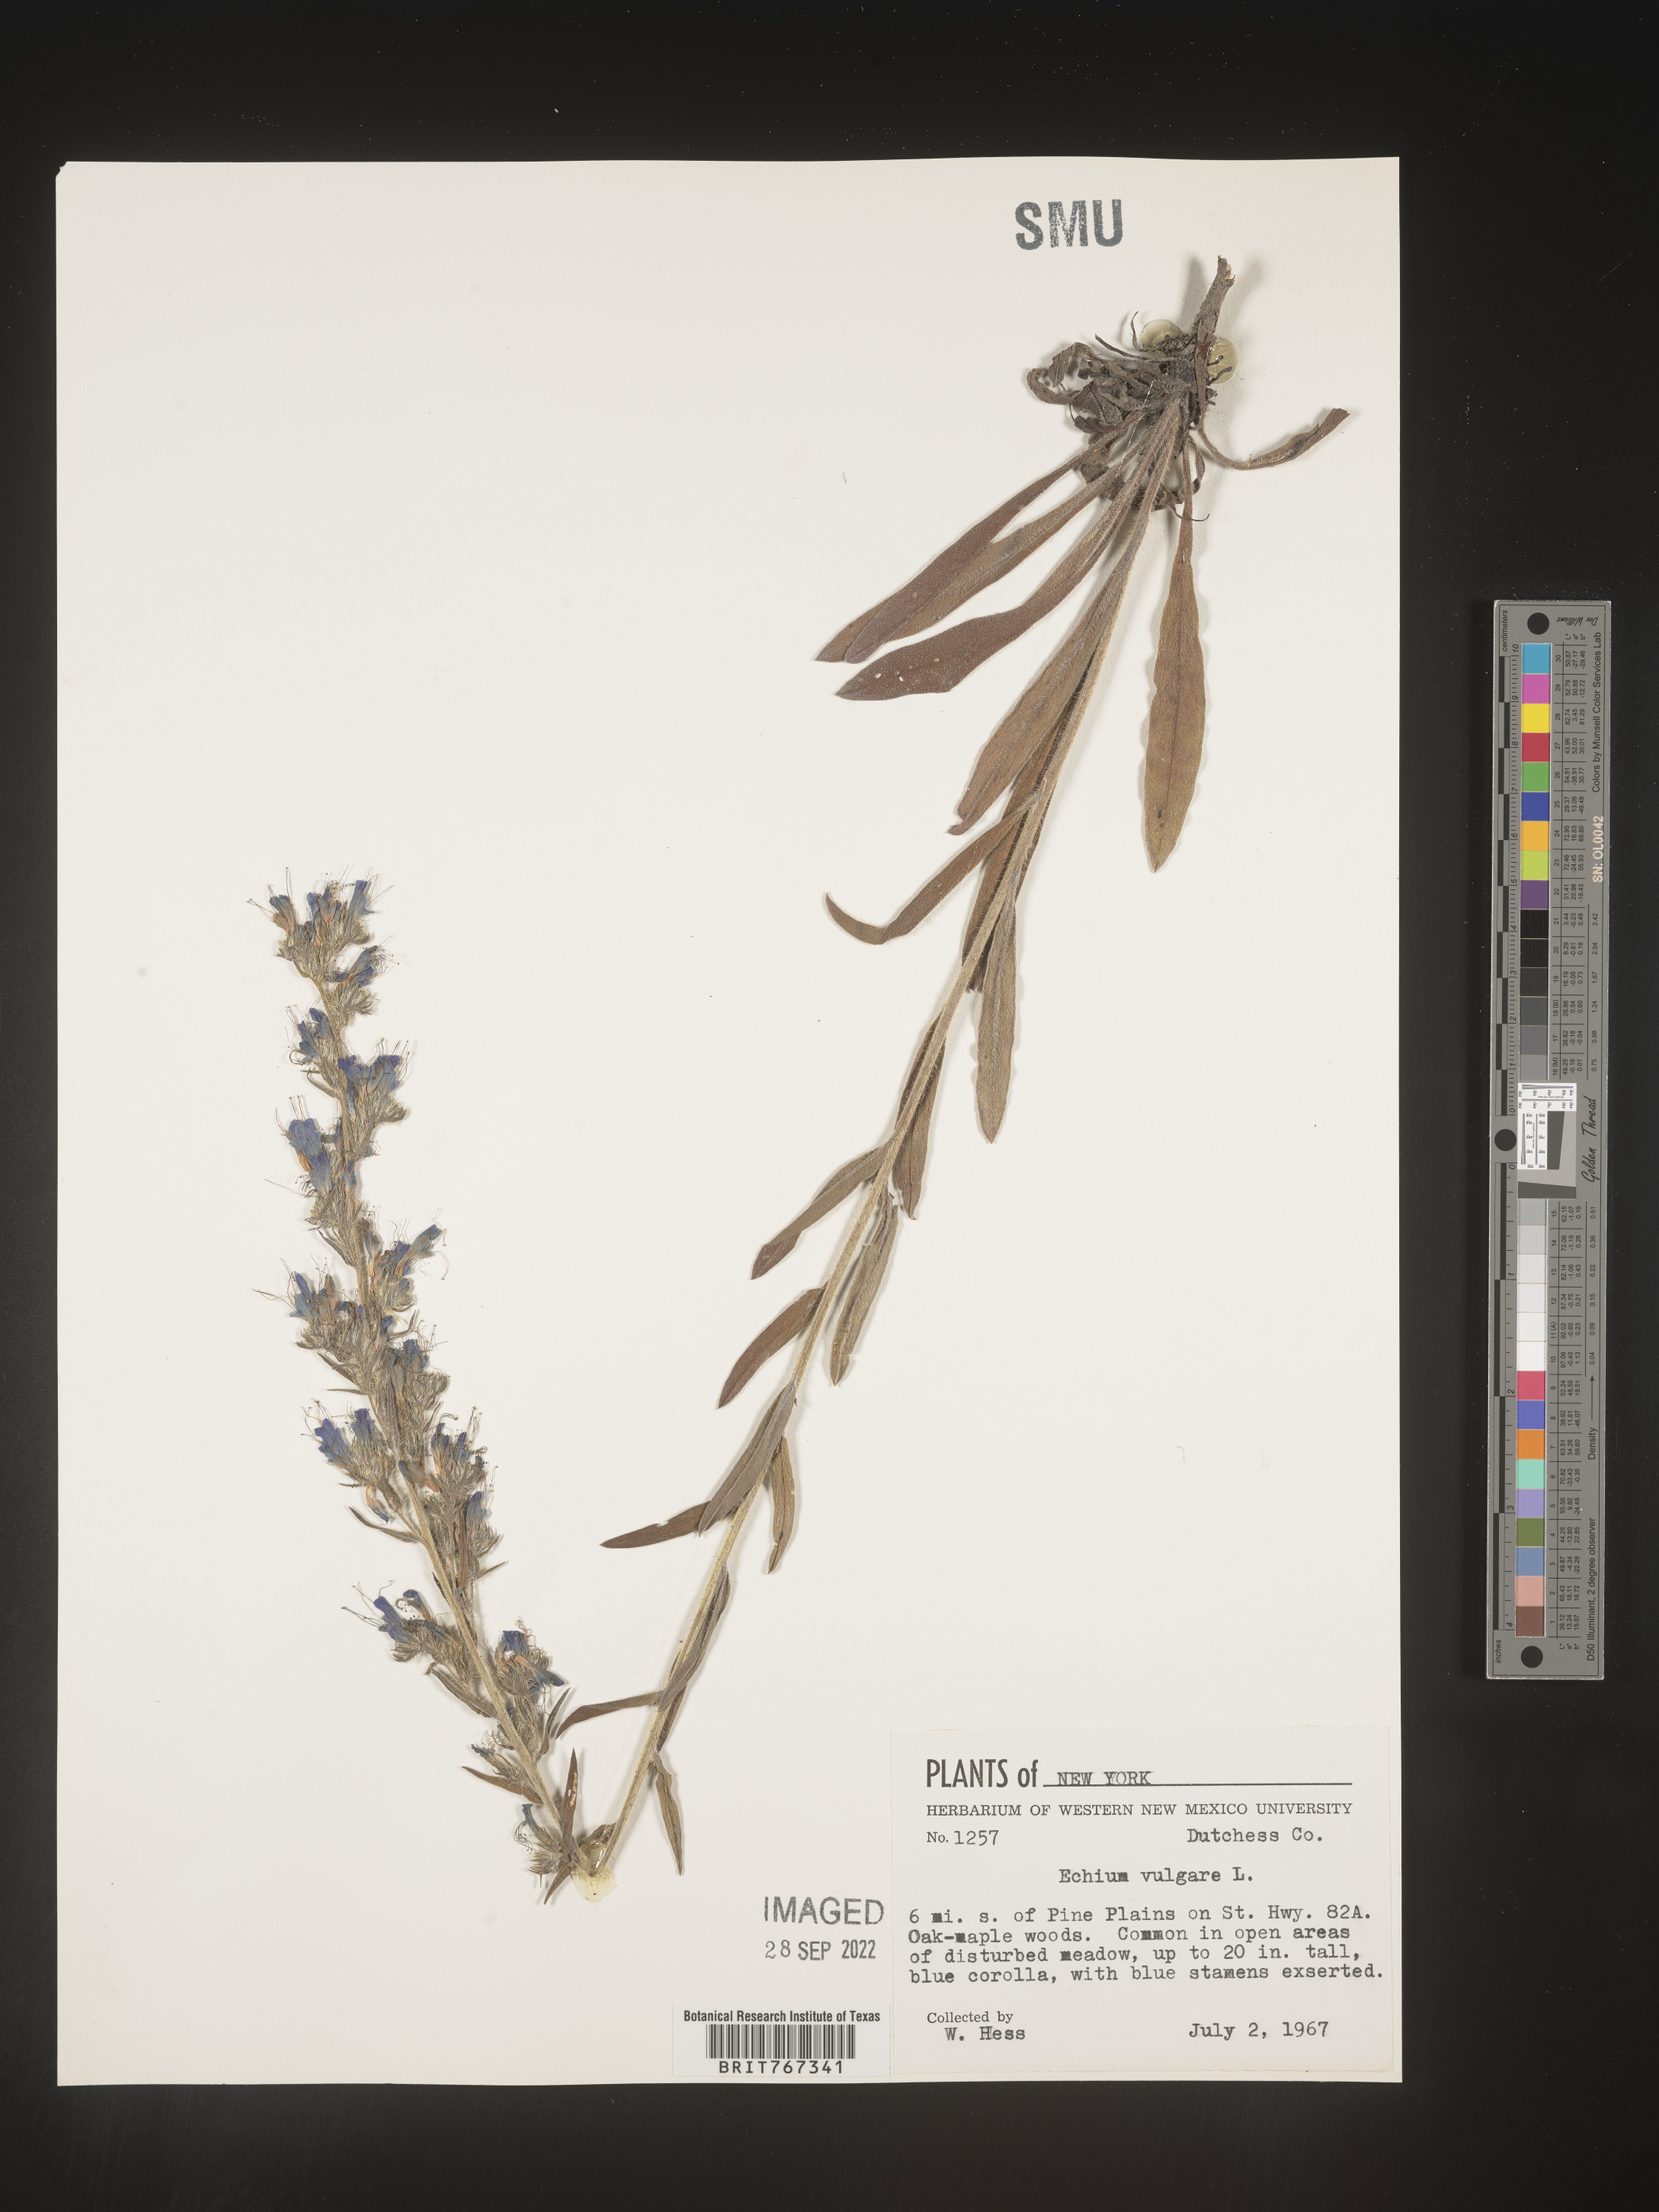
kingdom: Plantae
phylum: Tracheophyta
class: Magnoliopsida
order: Boraginales
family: Boraginaceae
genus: Echium
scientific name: Echium
